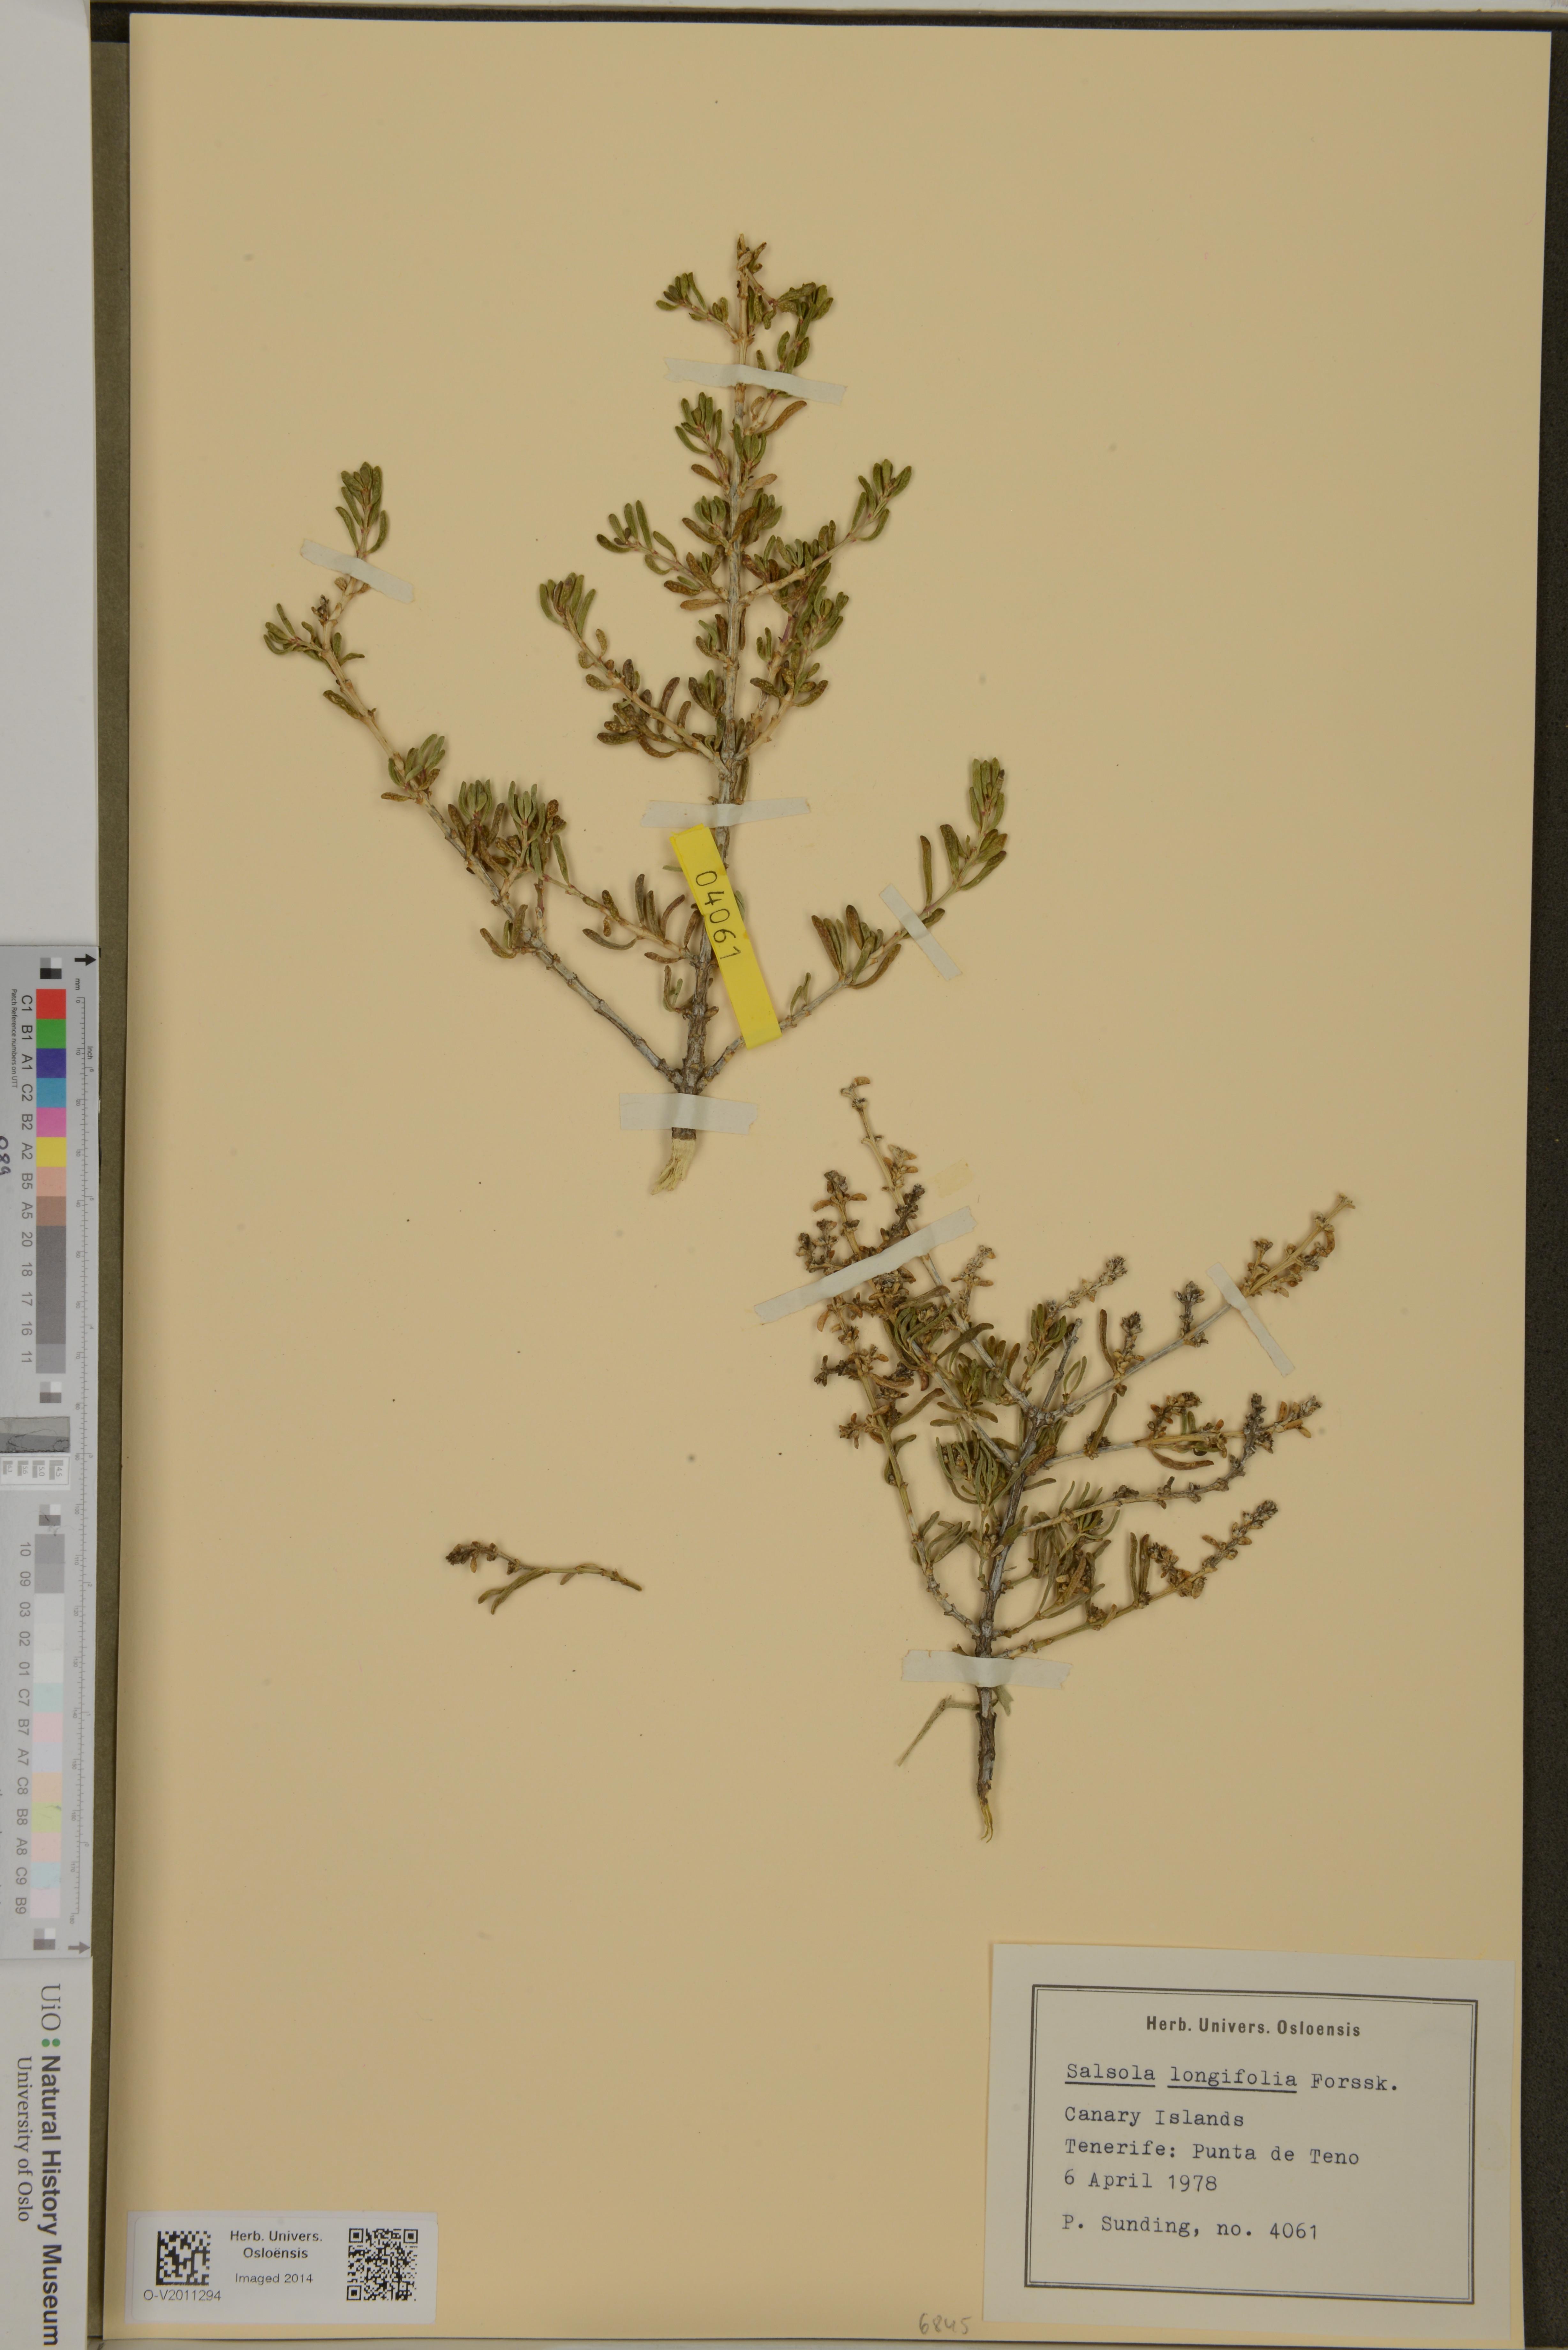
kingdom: Plantae
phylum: Tracheophyta
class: Magnoliopsida
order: Caryophyllales
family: Amaranthaceae
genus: Soda
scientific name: Soda longifolia
